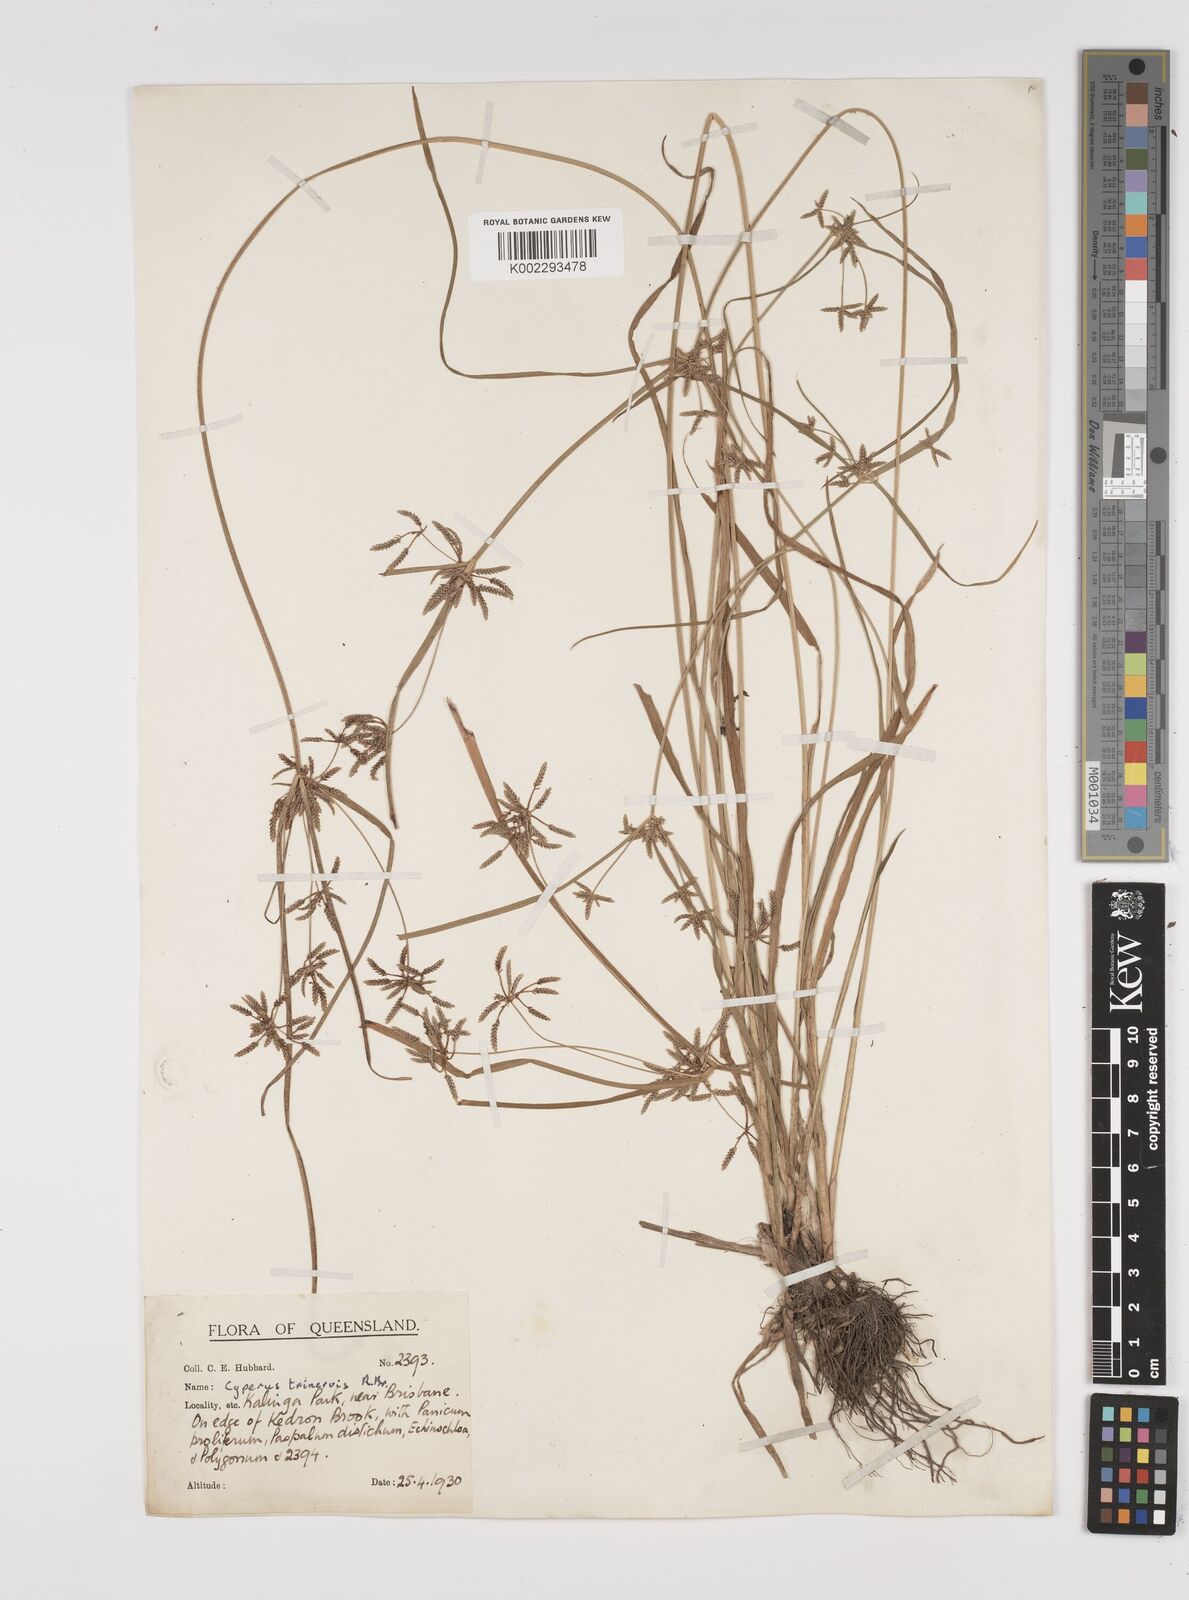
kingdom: Plantae
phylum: Tracheophyta
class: Liliopsida
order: Poales
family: Cyperaceae
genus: Cyperus
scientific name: Cyperus trinervis
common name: Australian flatsedge
